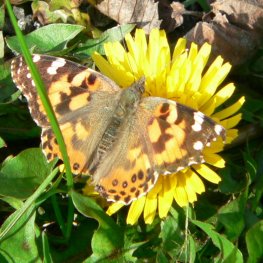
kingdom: Animalia
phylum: Arthropoda
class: Insecta
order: Lepidoptera
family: Nymphalidae
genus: Vanessa
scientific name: Vanessa cardui
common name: Painted Lady
